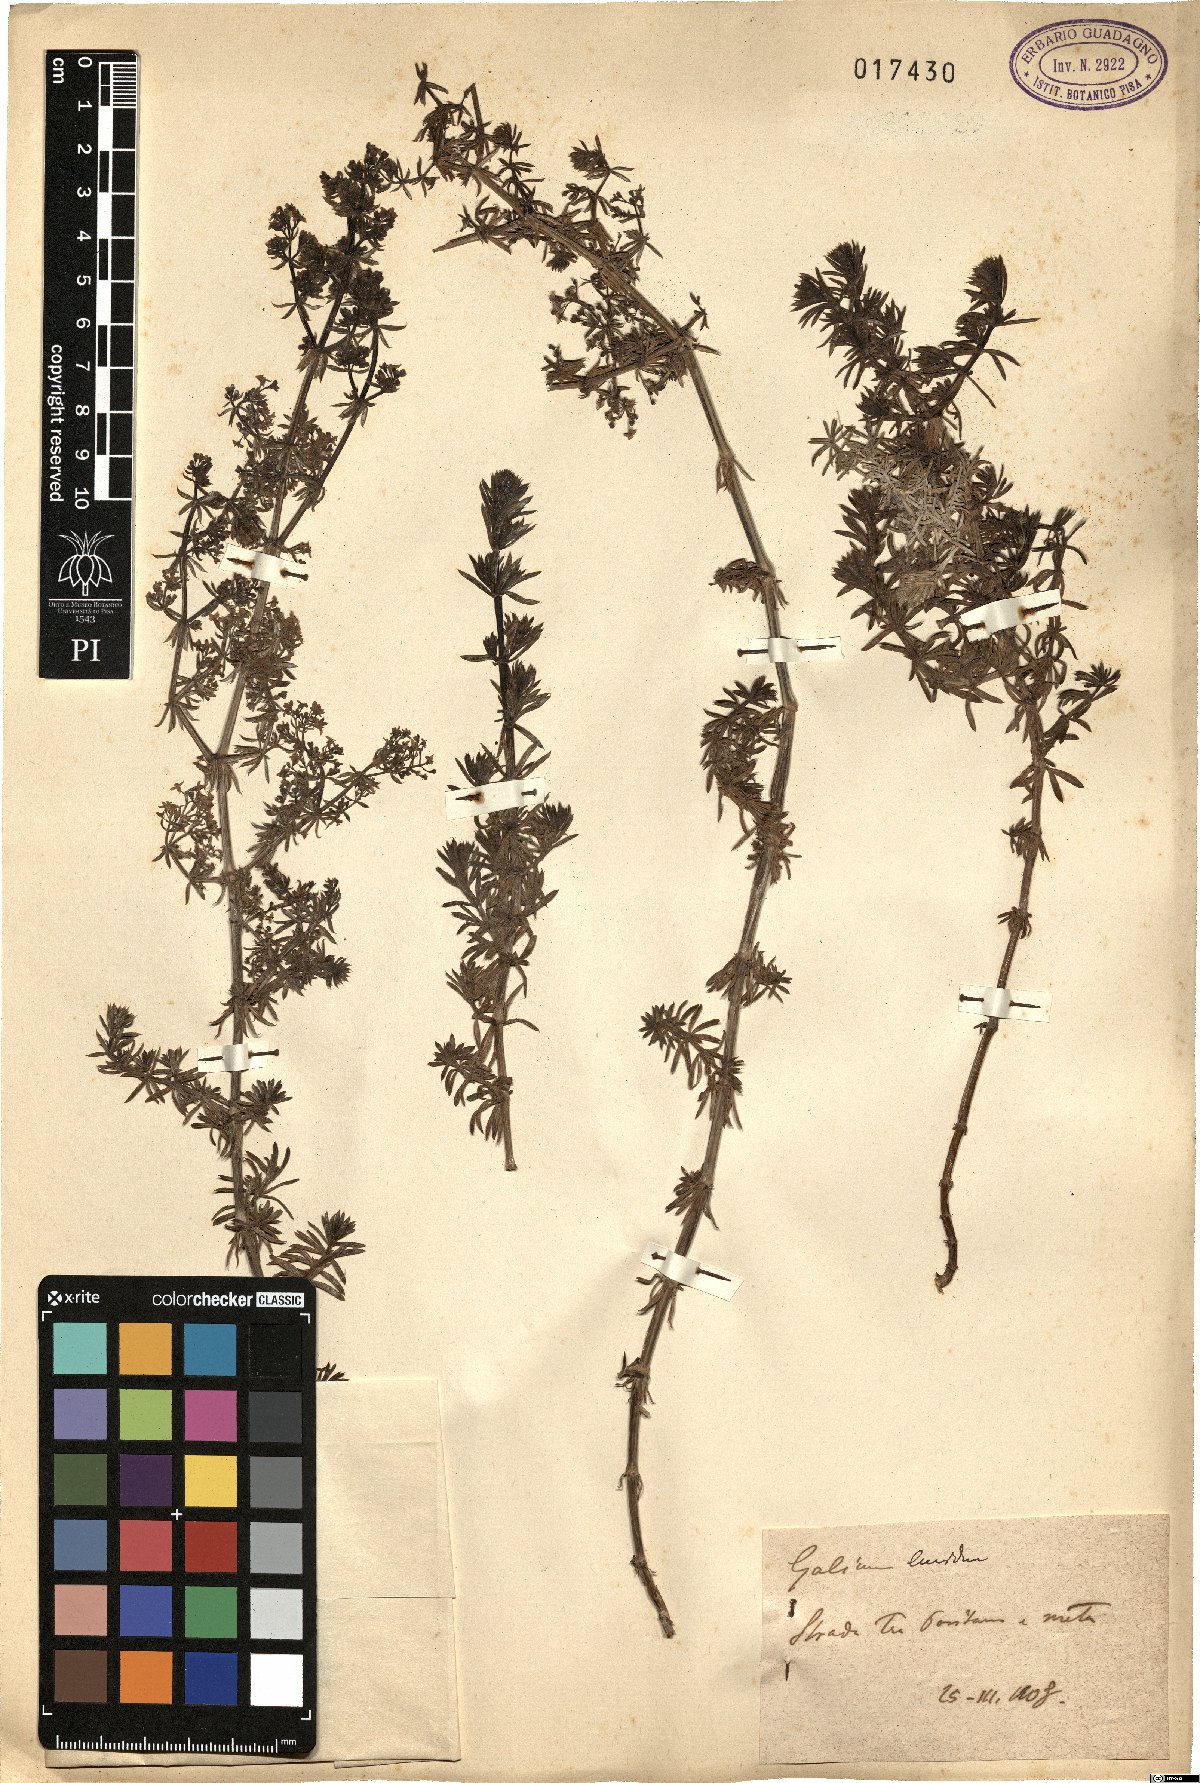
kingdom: Plantae
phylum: Tracheophyta
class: Magnoliopsida
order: Gentianales
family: Rubiaceae
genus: Galium
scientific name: Galium lucidum
